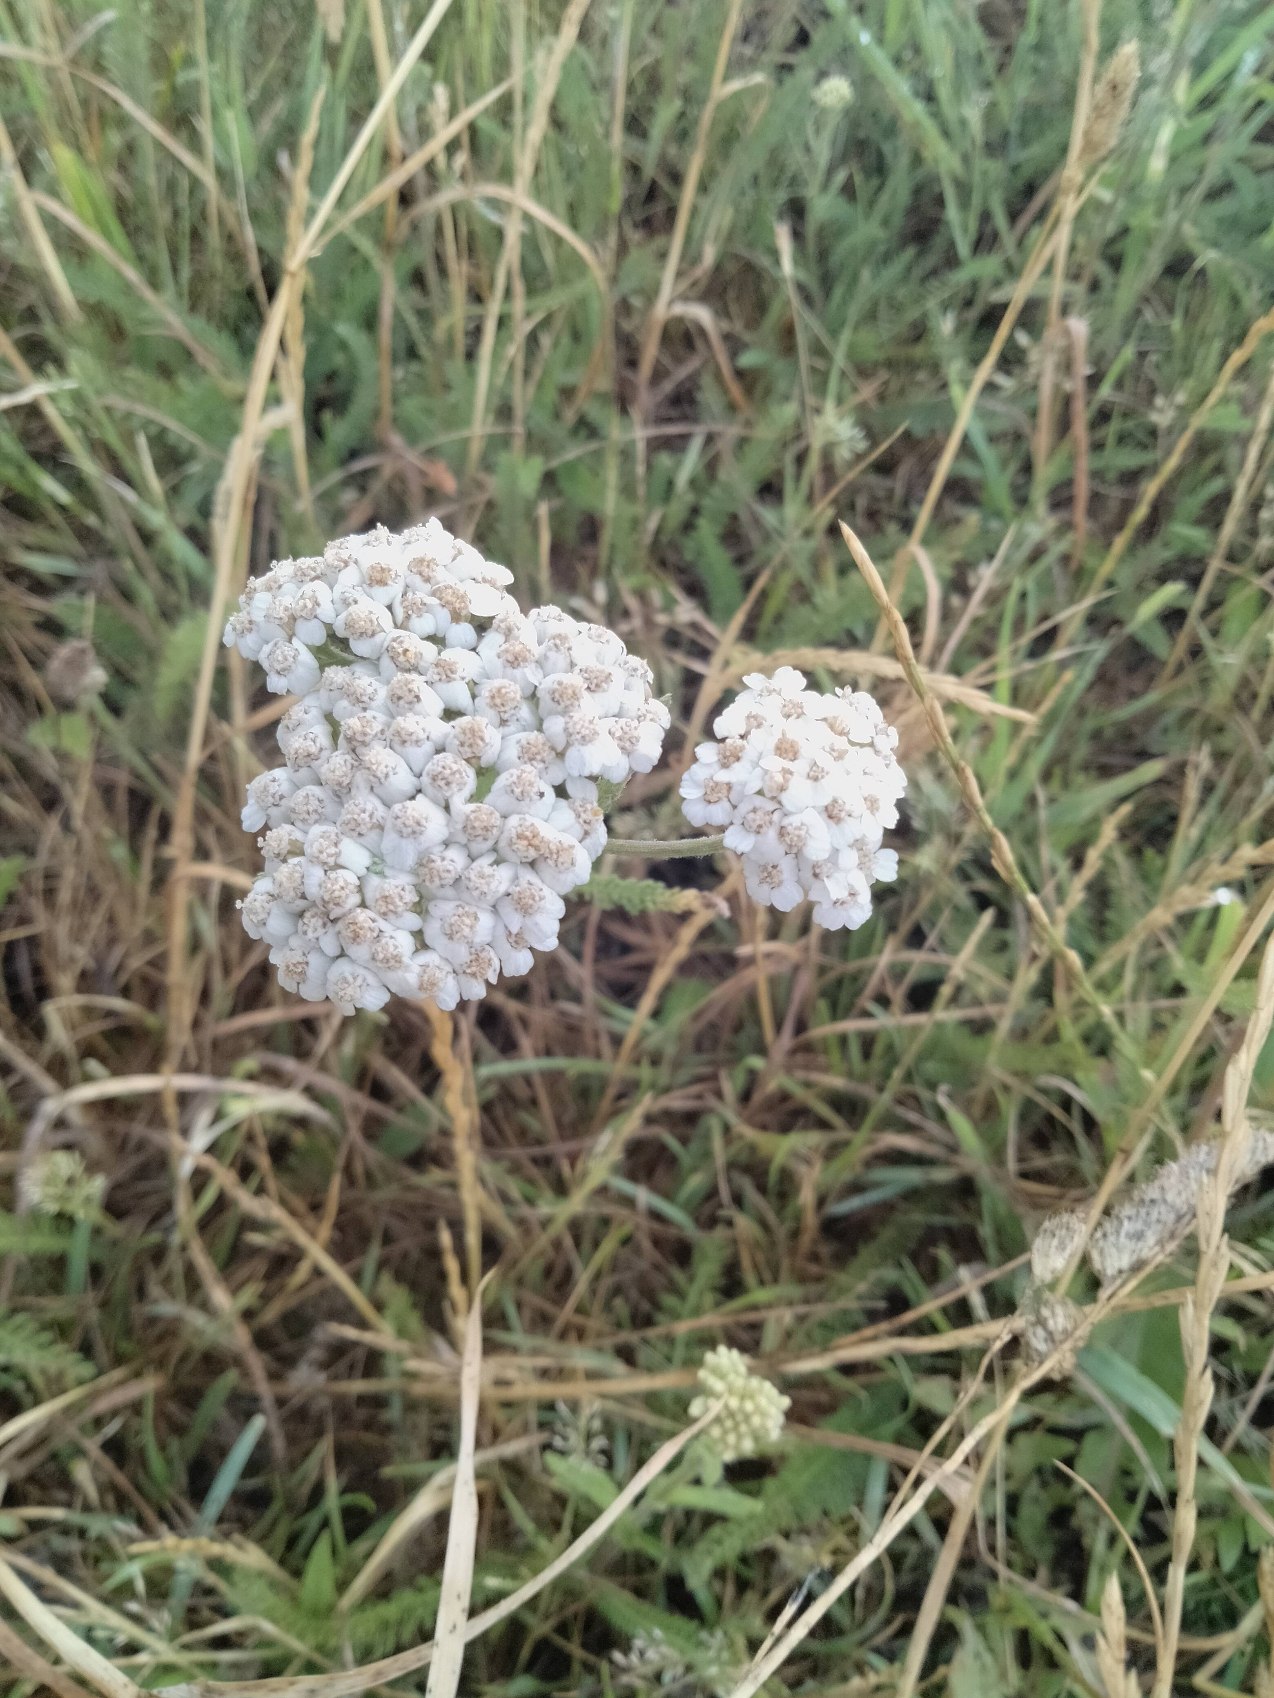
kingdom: Plantae
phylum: Tracheophyta
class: Magnoliopsida
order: Asterales
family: Asteraceae
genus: Achillea
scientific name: Achillea millefolium
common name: Almindelig røllike
